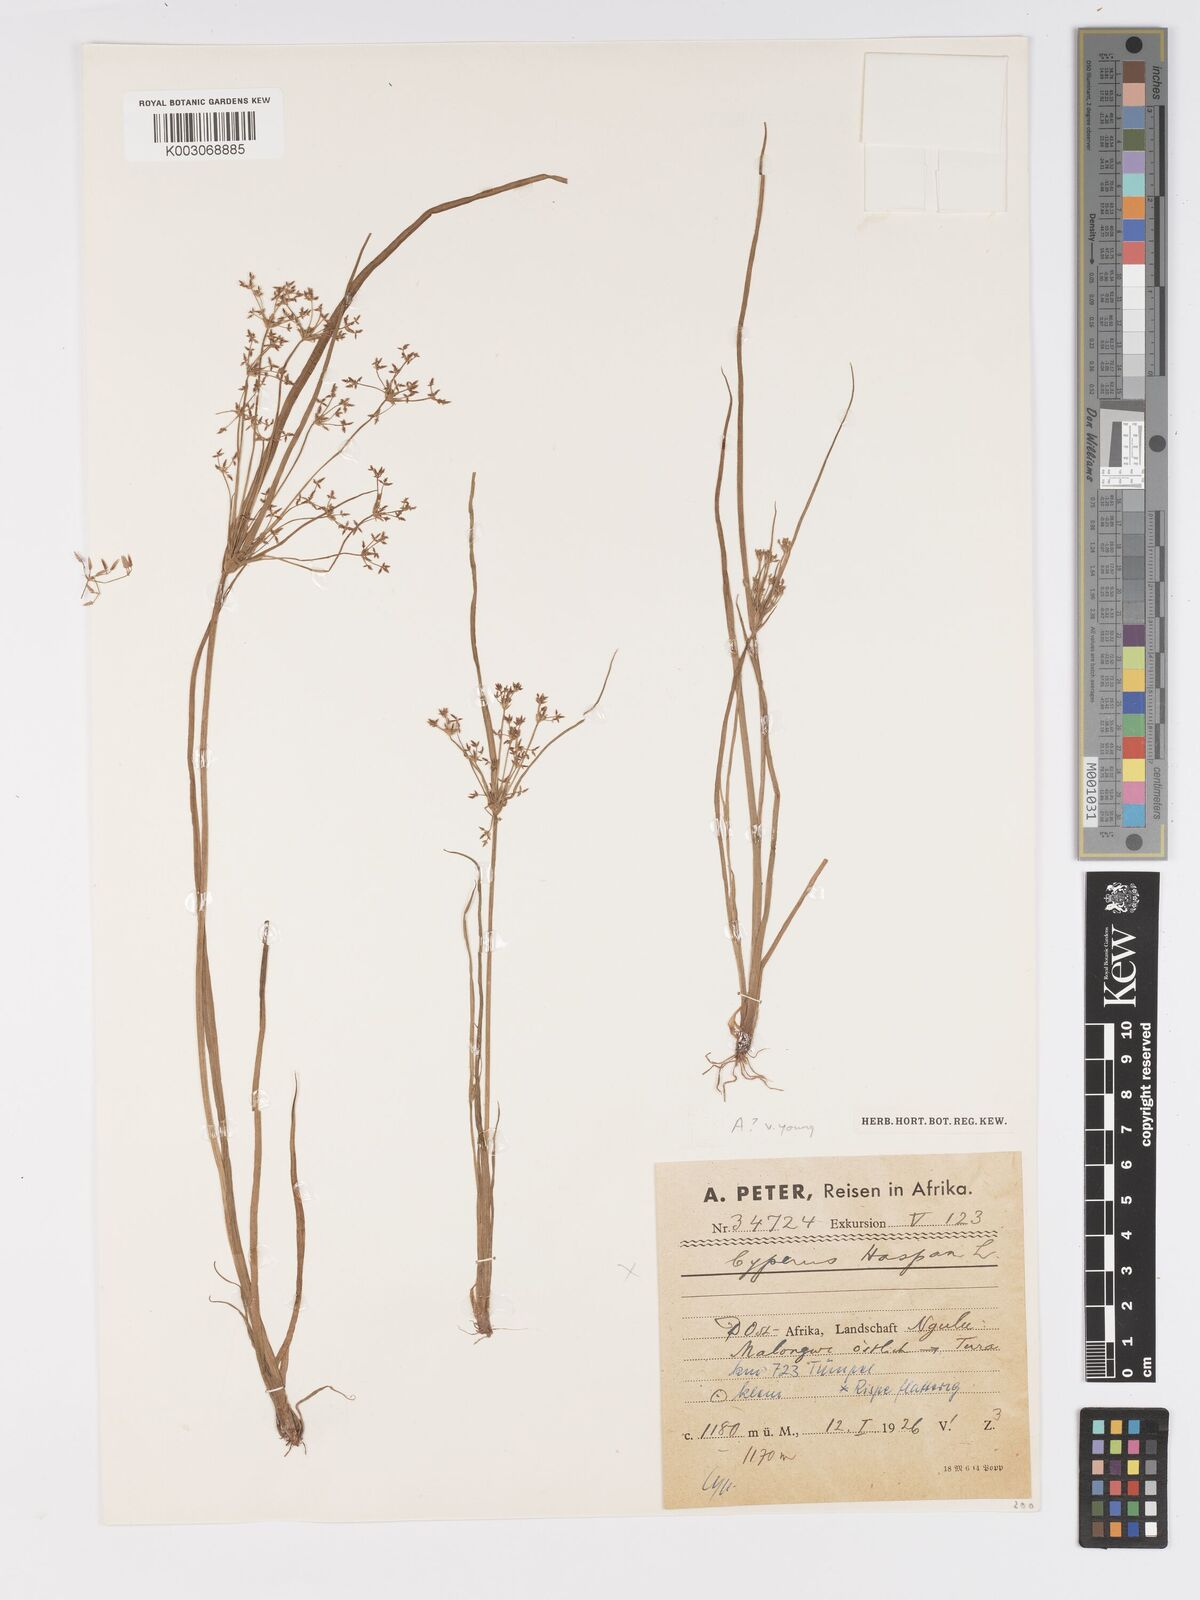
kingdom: Plantae
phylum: Tracheophyta
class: Liliopsida
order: Poales
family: Cyperaceae
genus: Cyperus
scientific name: Cyperus tenuispica
